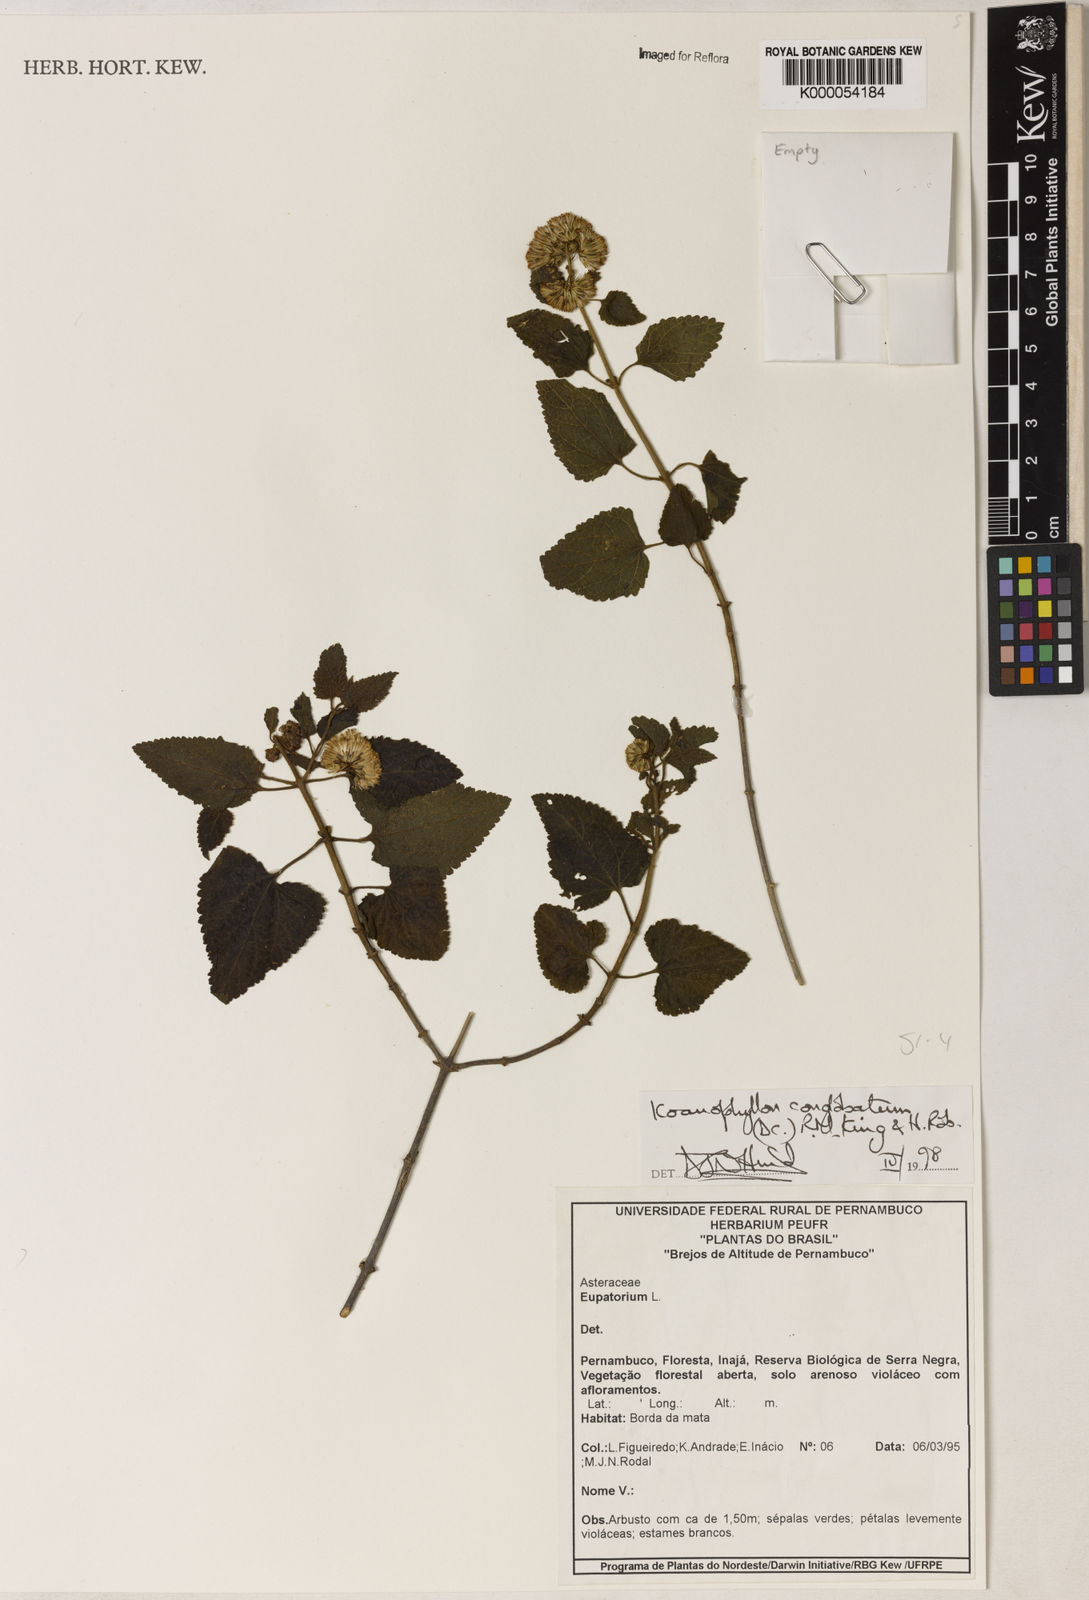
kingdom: Plantae
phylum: Tracheophyta
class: Magnoliopsida
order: Asterales
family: Asteraceae
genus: Koanophyllon
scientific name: Koanophyllon conglobatum
